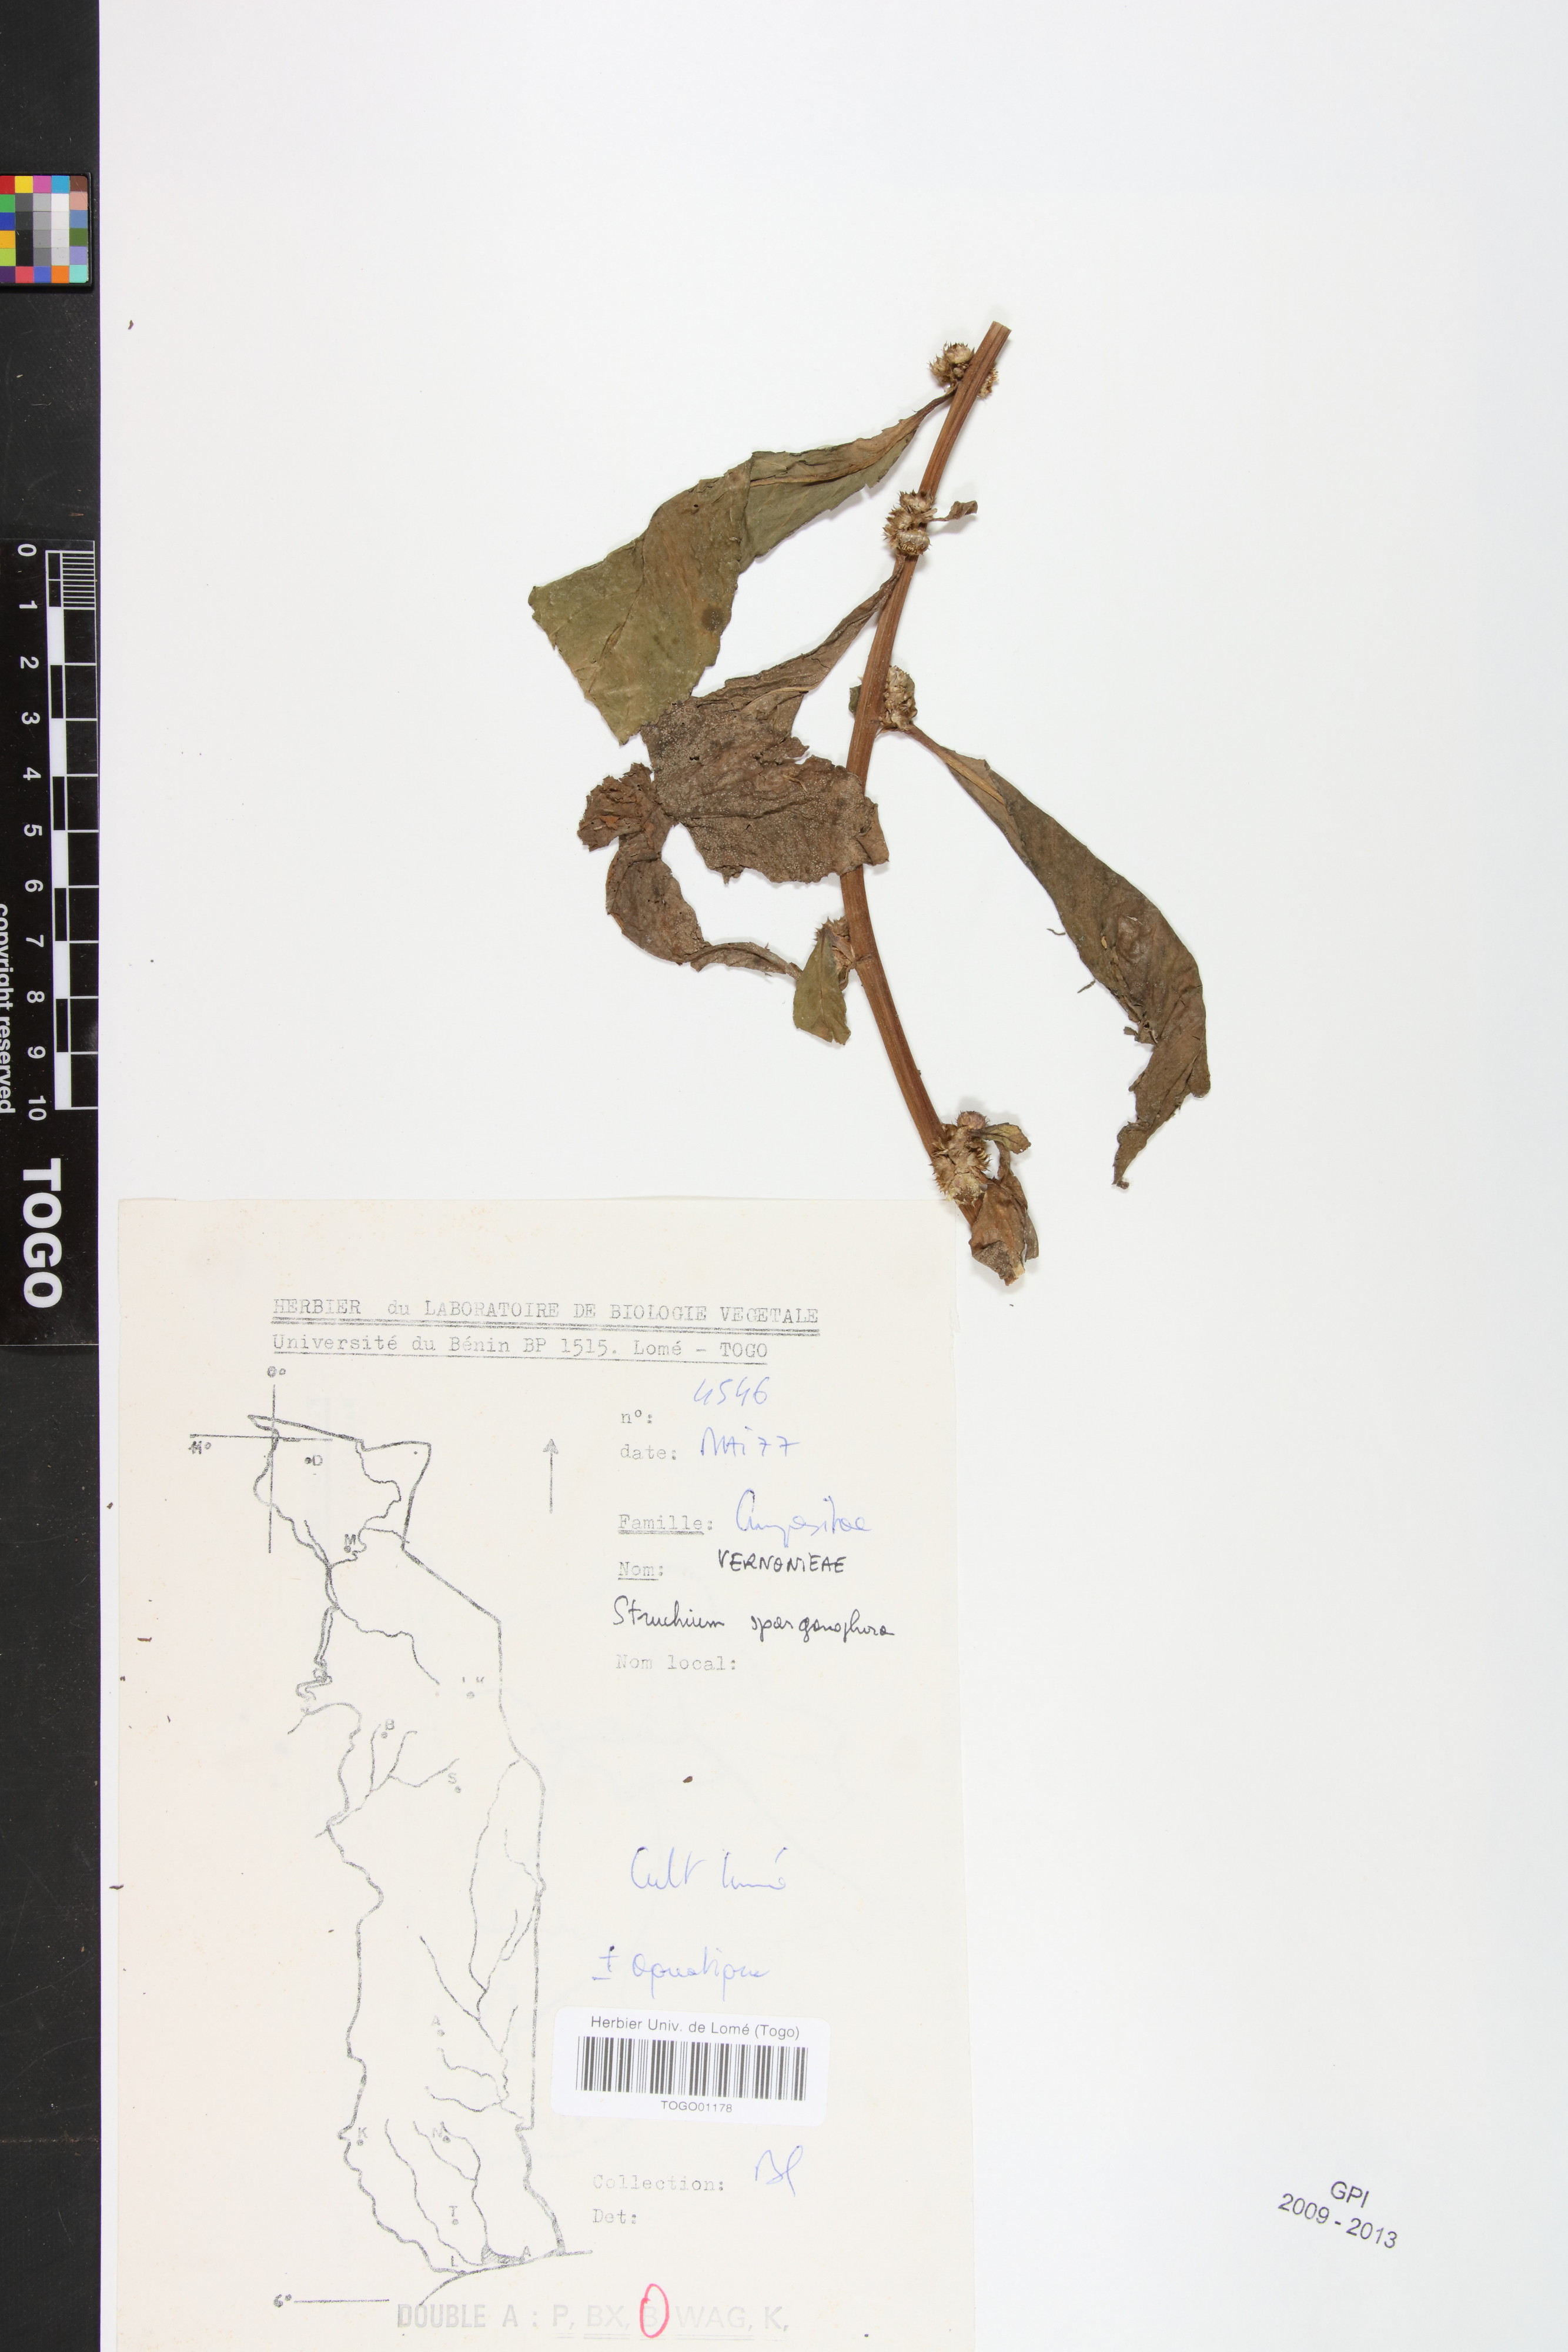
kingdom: Plantae
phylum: Tracheophyta
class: Magnoliopsida
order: Asterales
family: Asteraceae
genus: Struchium
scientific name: Struchium sparganophorum
